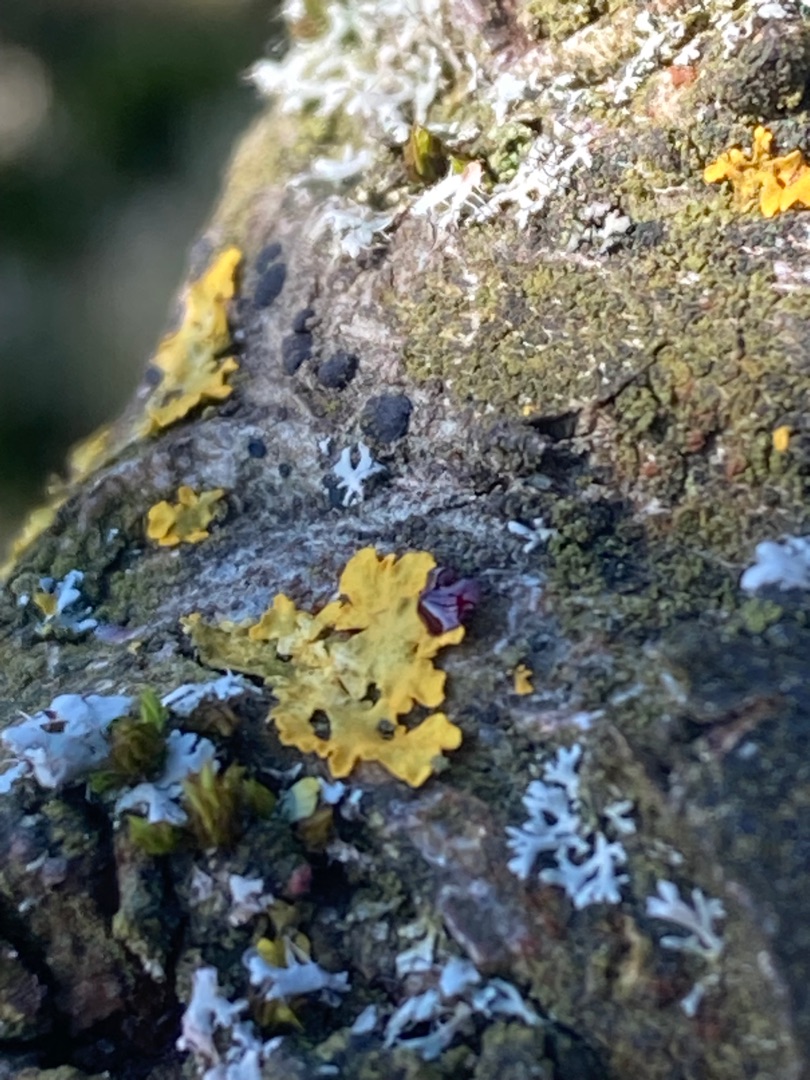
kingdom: Fungi
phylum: Ascomycota
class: Lecanoromycetes
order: Teloschistales
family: Teloschistaceae
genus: Xanthoria
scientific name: Xanthoria parietina
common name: Almindelig væggelav
